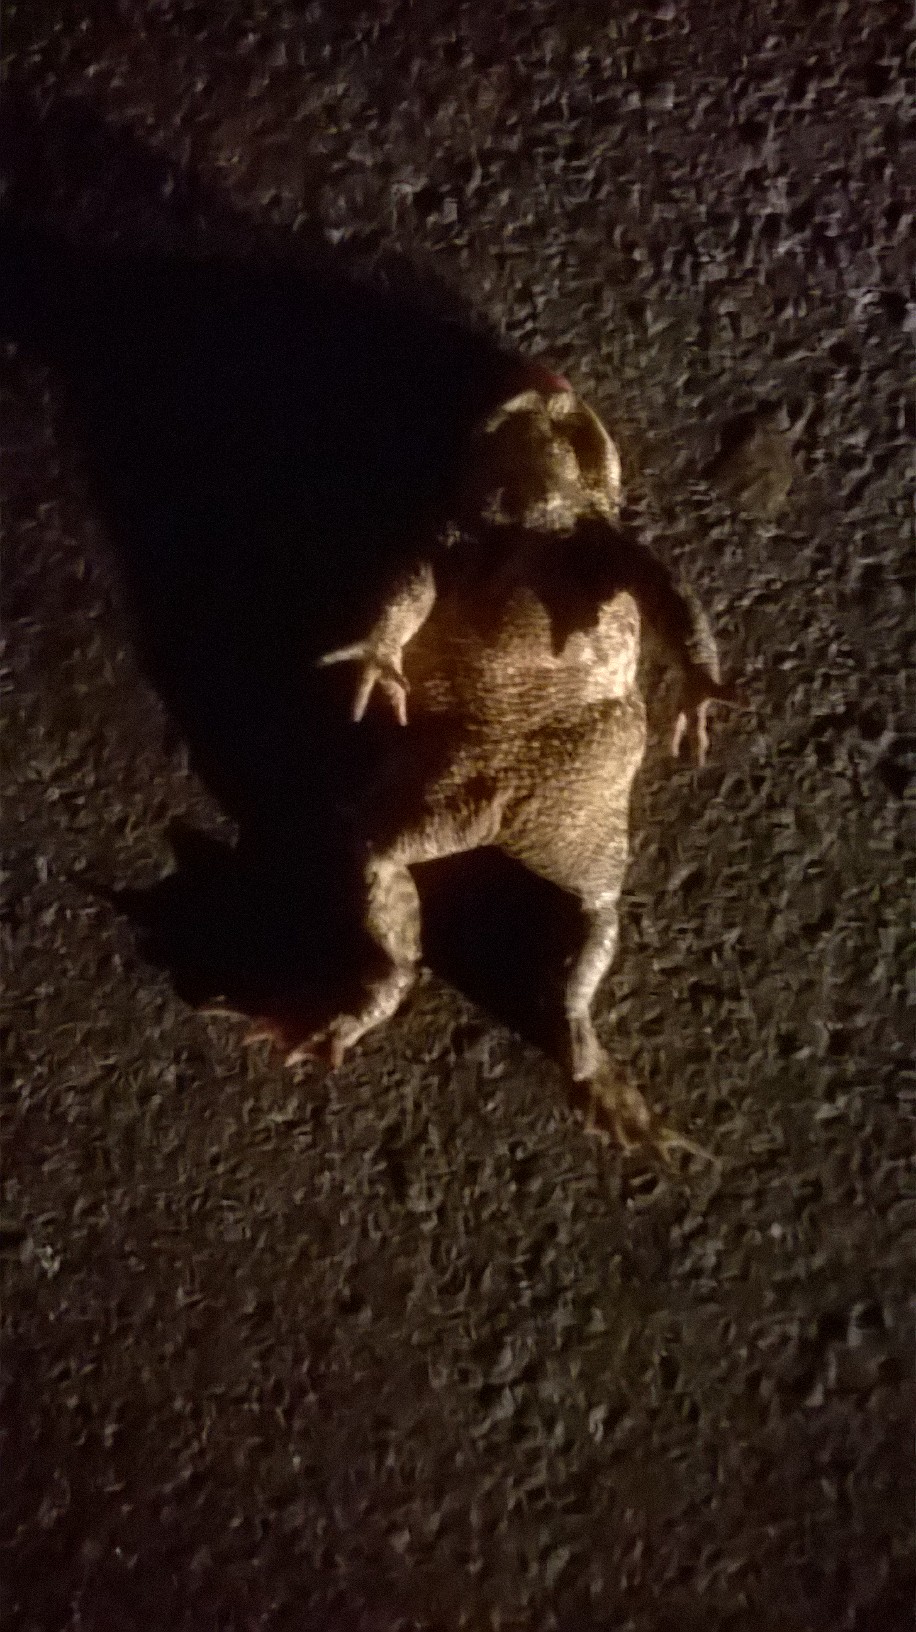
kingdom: Animalia
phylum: Chordata
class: Amphibia
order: Anura
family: Bufonidae
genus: Bufo
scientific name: Bufo bufo
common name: Common toad
